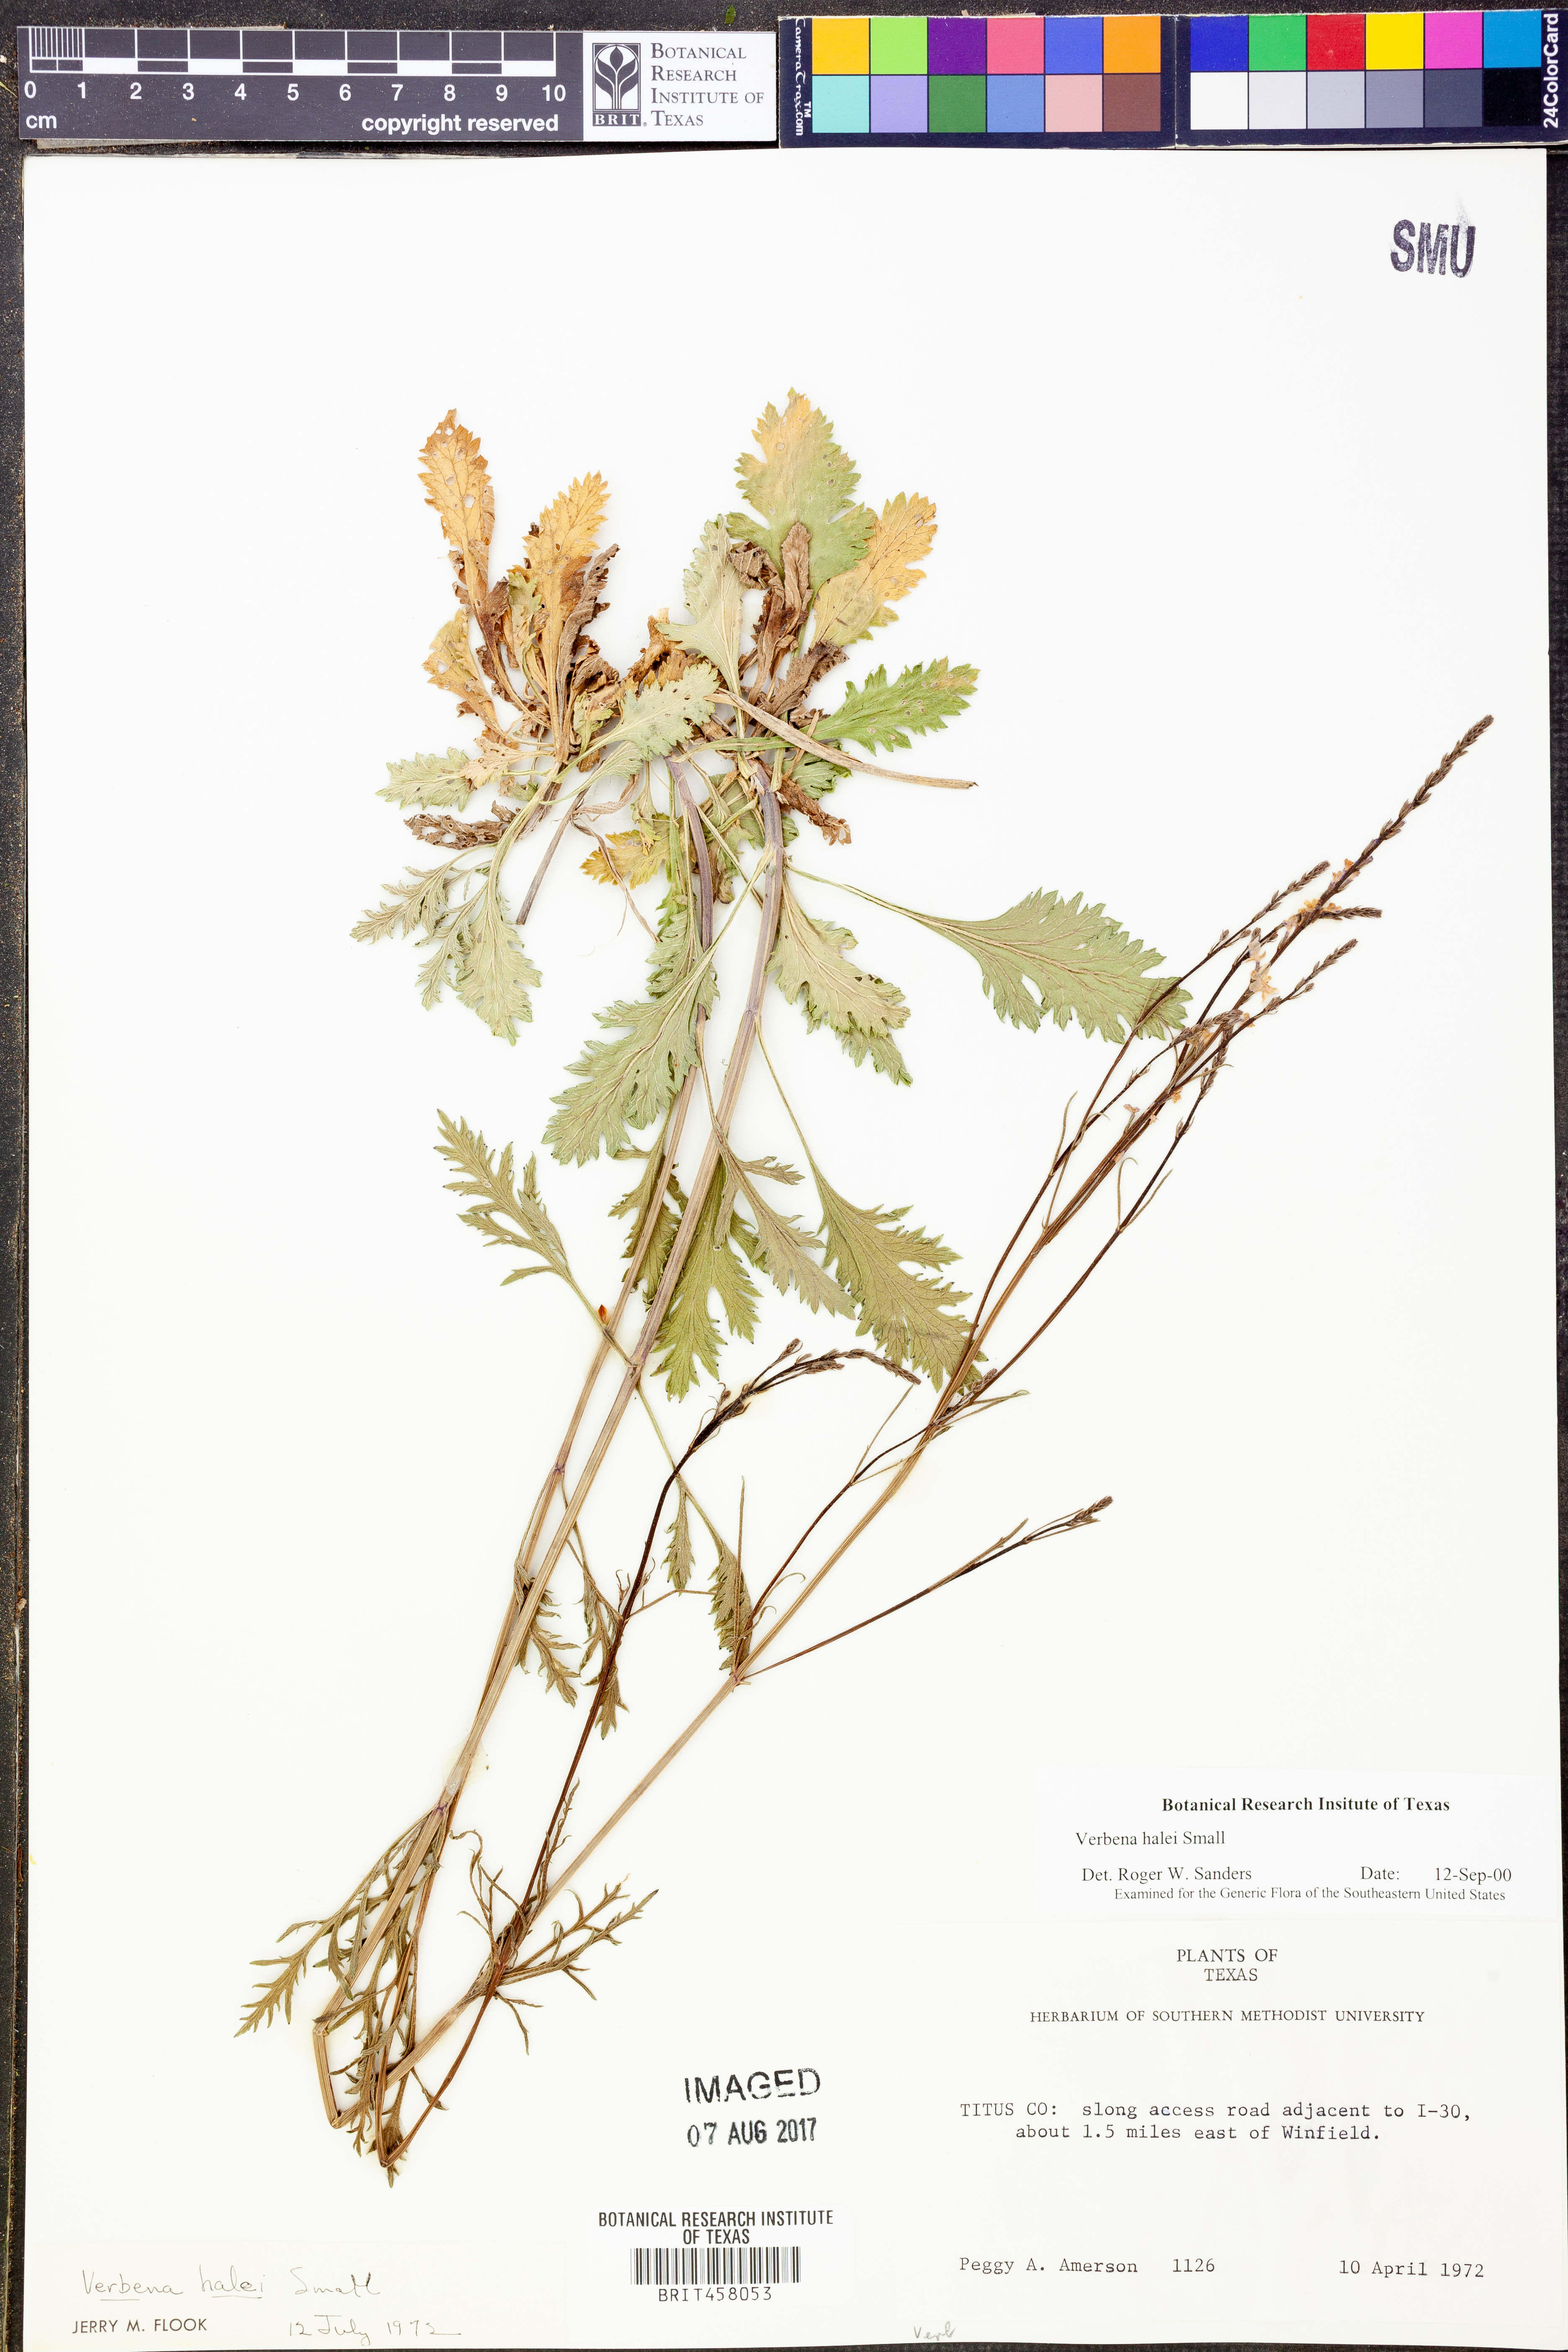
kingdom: Plantae
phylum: Tracheophyta
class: Magnoliopsida
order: Lamiales
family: Verbenaceae
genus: Verbena
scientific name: Verbena halei
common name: Texas vervain
